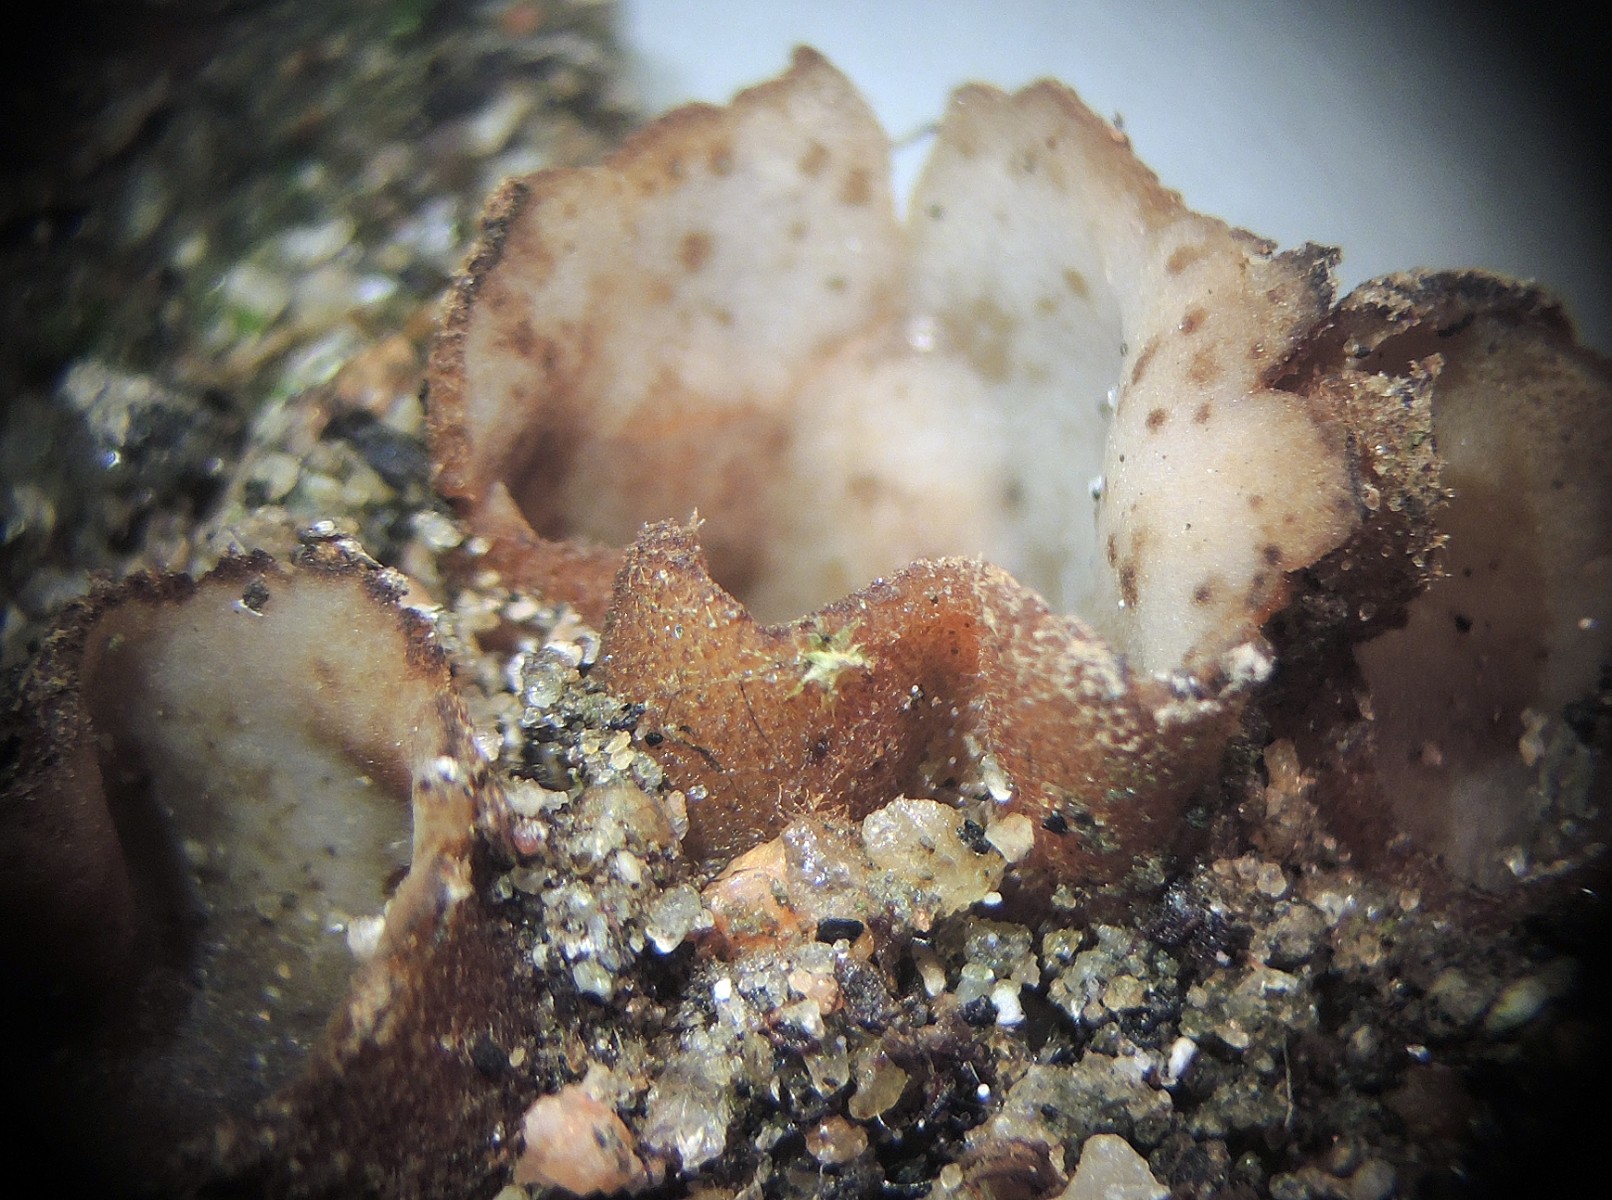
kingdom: Fungi
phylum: Ascomycota
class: Pezizomycetes
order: Pezizales
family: Pyronemataceae
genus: Geopora
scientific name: Geopora arenicola
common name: trøffel-jordbæger
